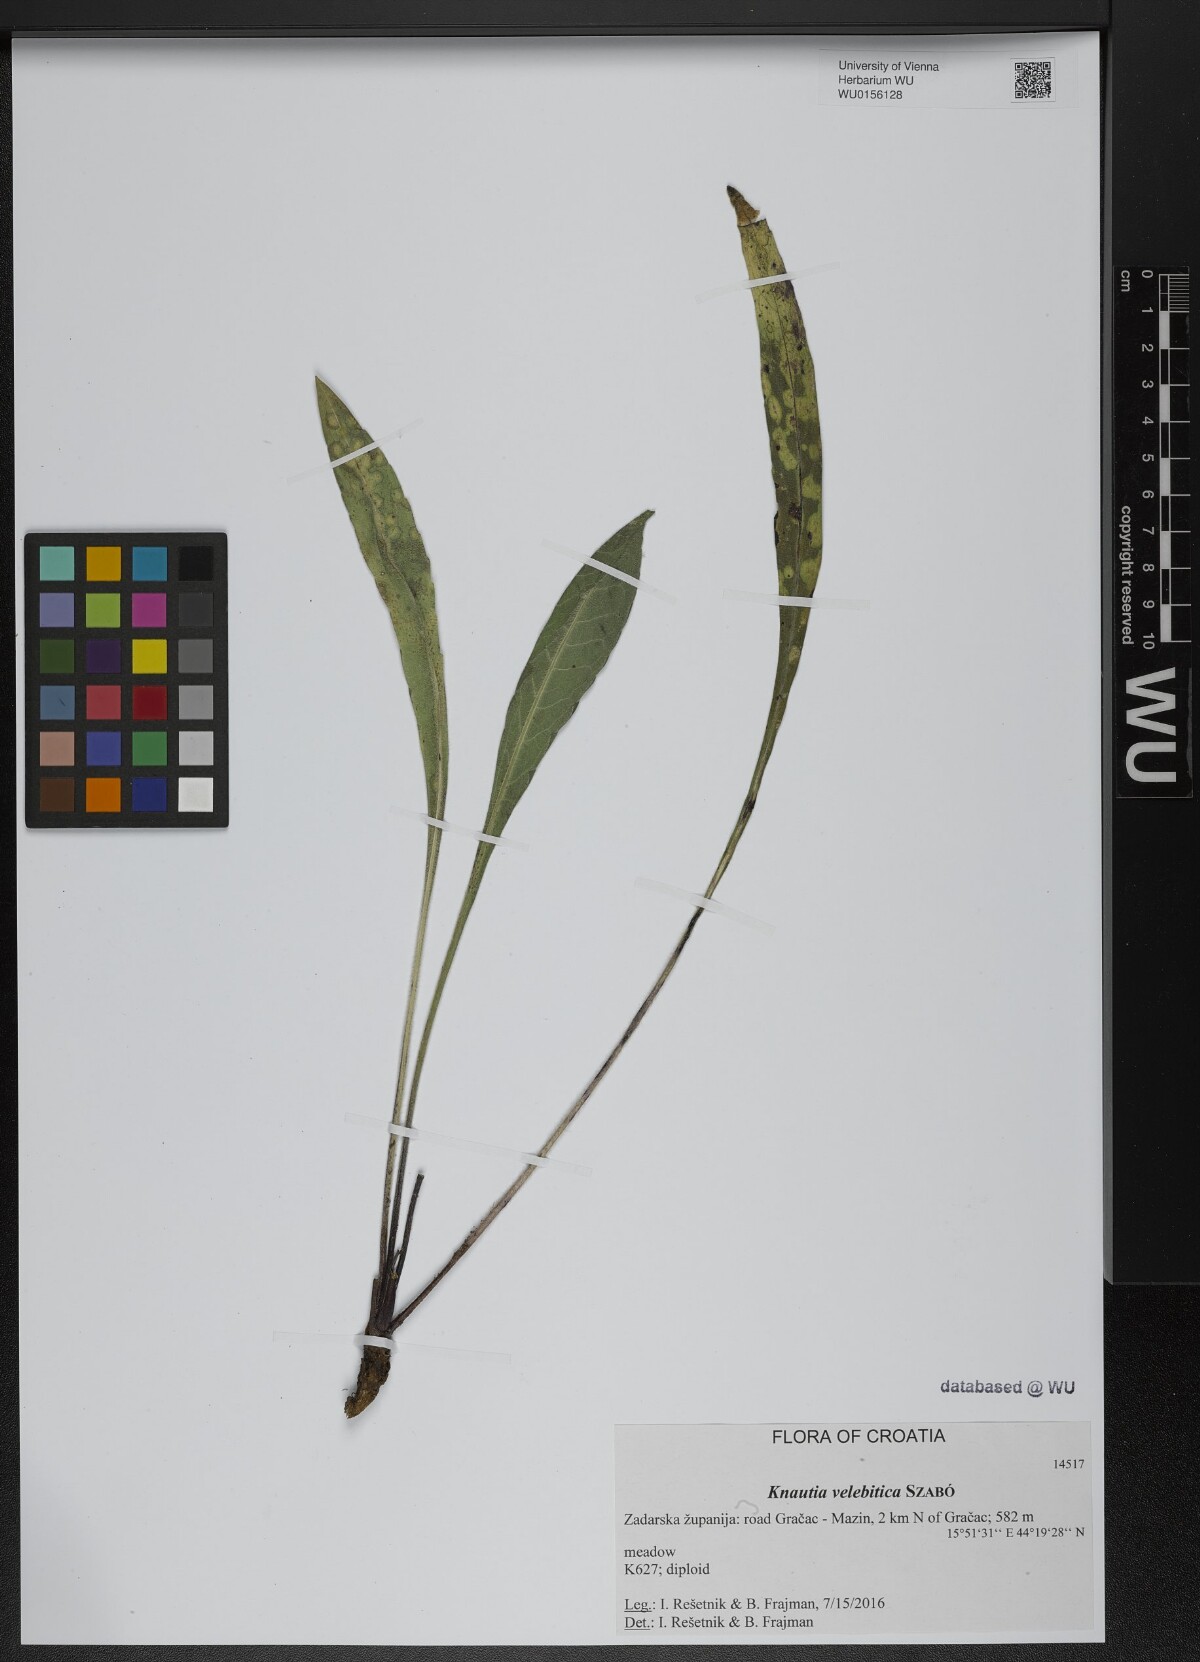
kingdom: Plantae
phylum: Tracheophyta
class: Magnoliopsida
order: Dipsacales
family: Caprifoliaceae
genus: Knautia
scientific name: Knautia velebitica
